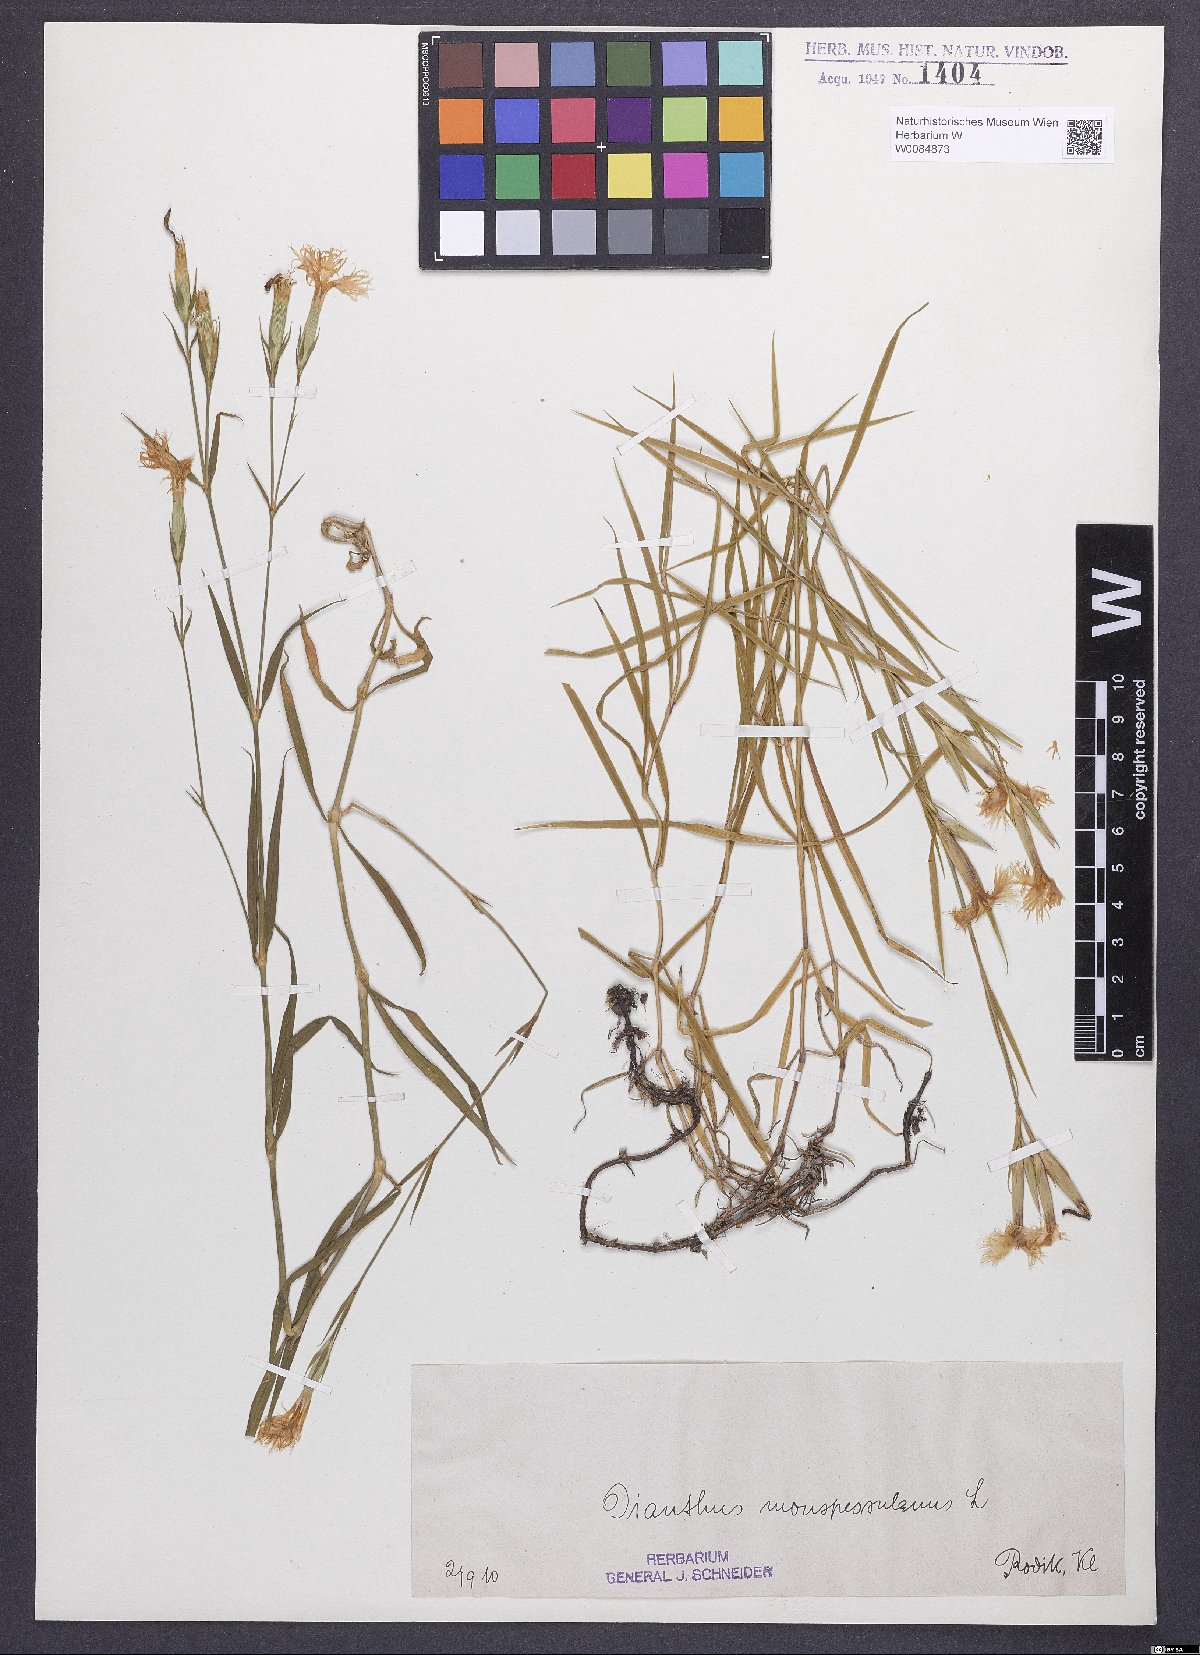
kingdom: Plantae
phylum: Tracheophyta
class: Magnoliopsida
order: Caryophyllales
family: Caryophyllaceae
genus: Dianthus
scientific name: Dianthus hyssopifolius
